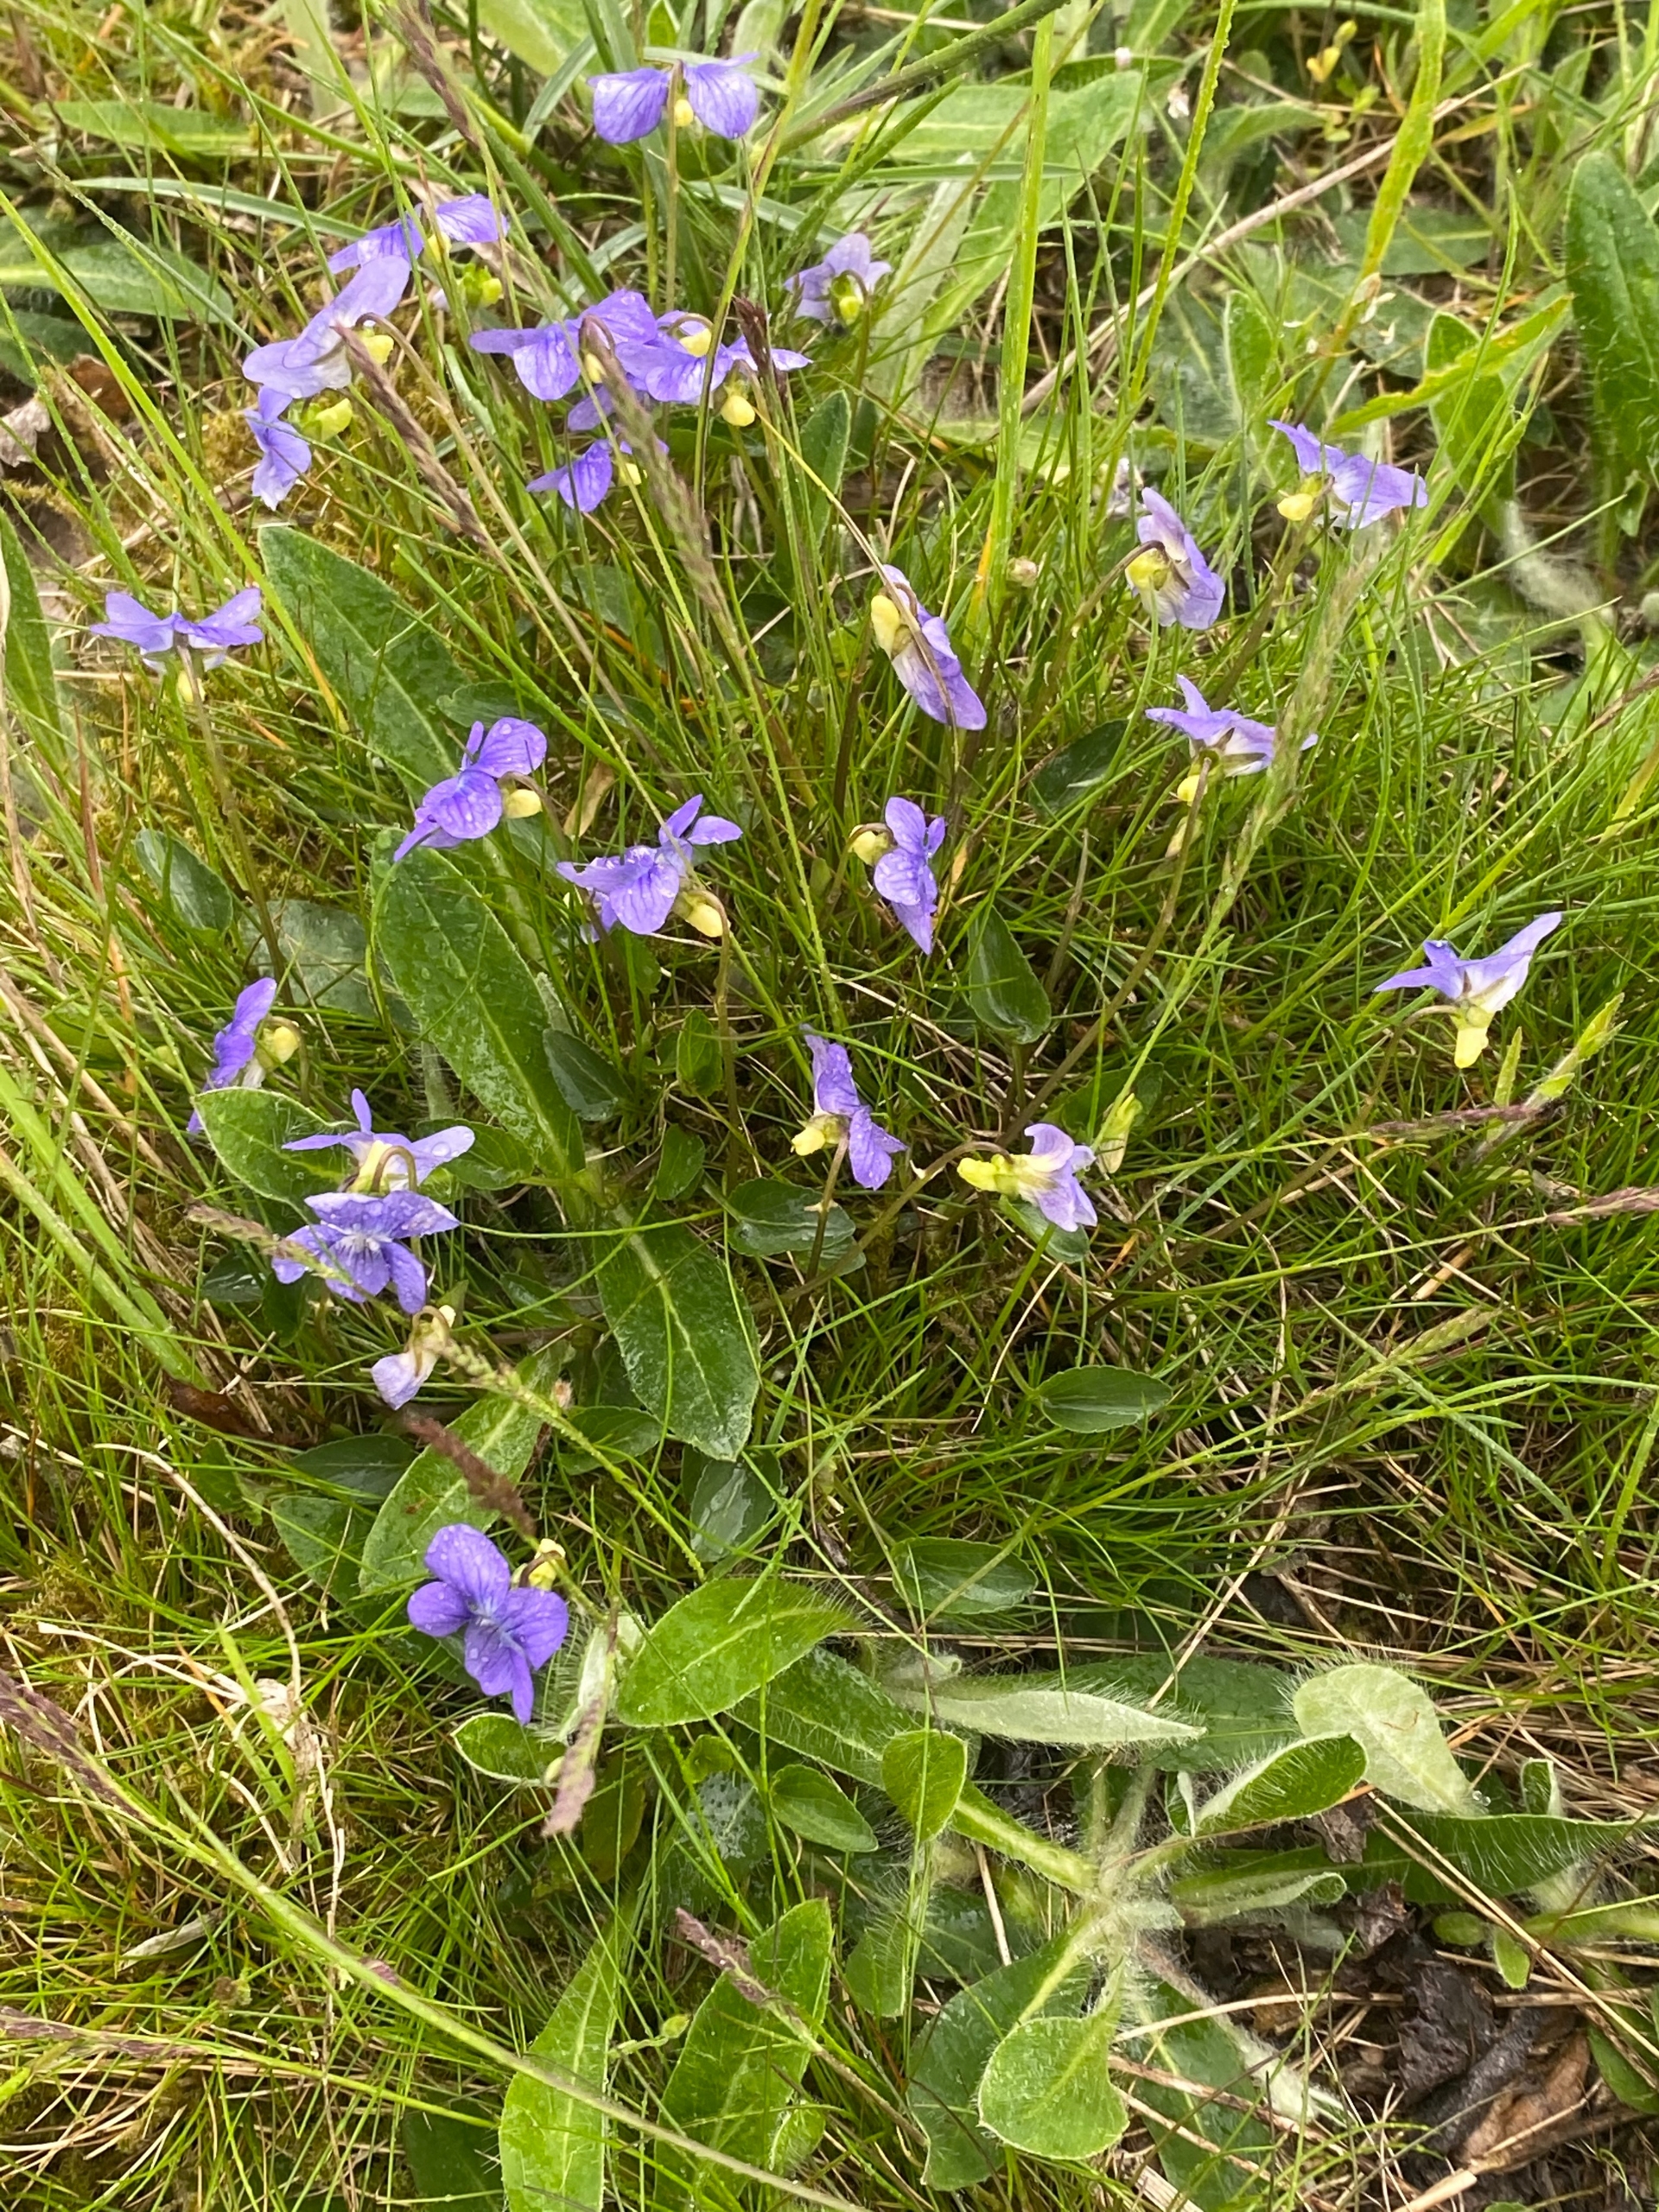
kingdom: Plantae
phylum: Tracheophyta
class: Magnoliopsida
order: Malpighiales
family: Violaceae
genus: Viola
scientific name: Viola canina
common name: Hunde-viol
